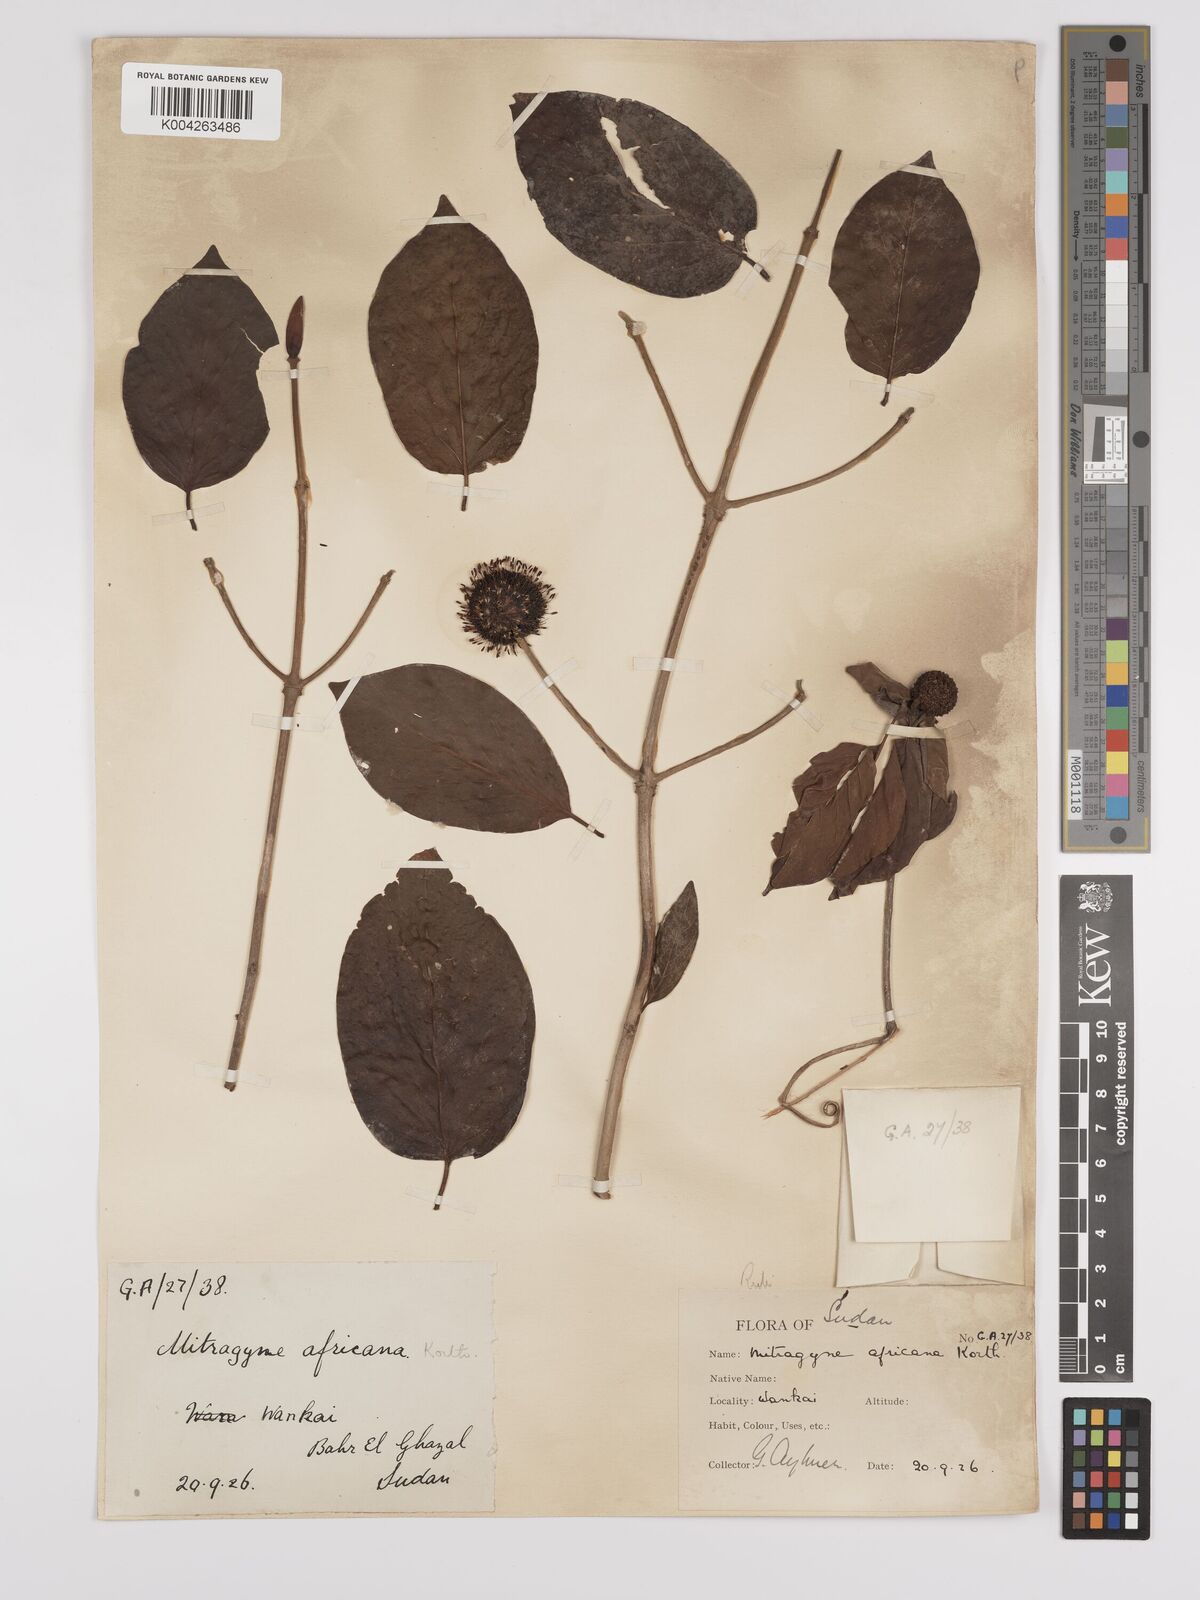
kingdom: Plantae
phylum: Tracheophyta
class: Magnoliopsida
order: Gentianales
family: Rubiaceae
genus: Mitragyna
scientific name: Mitragyna inermis
